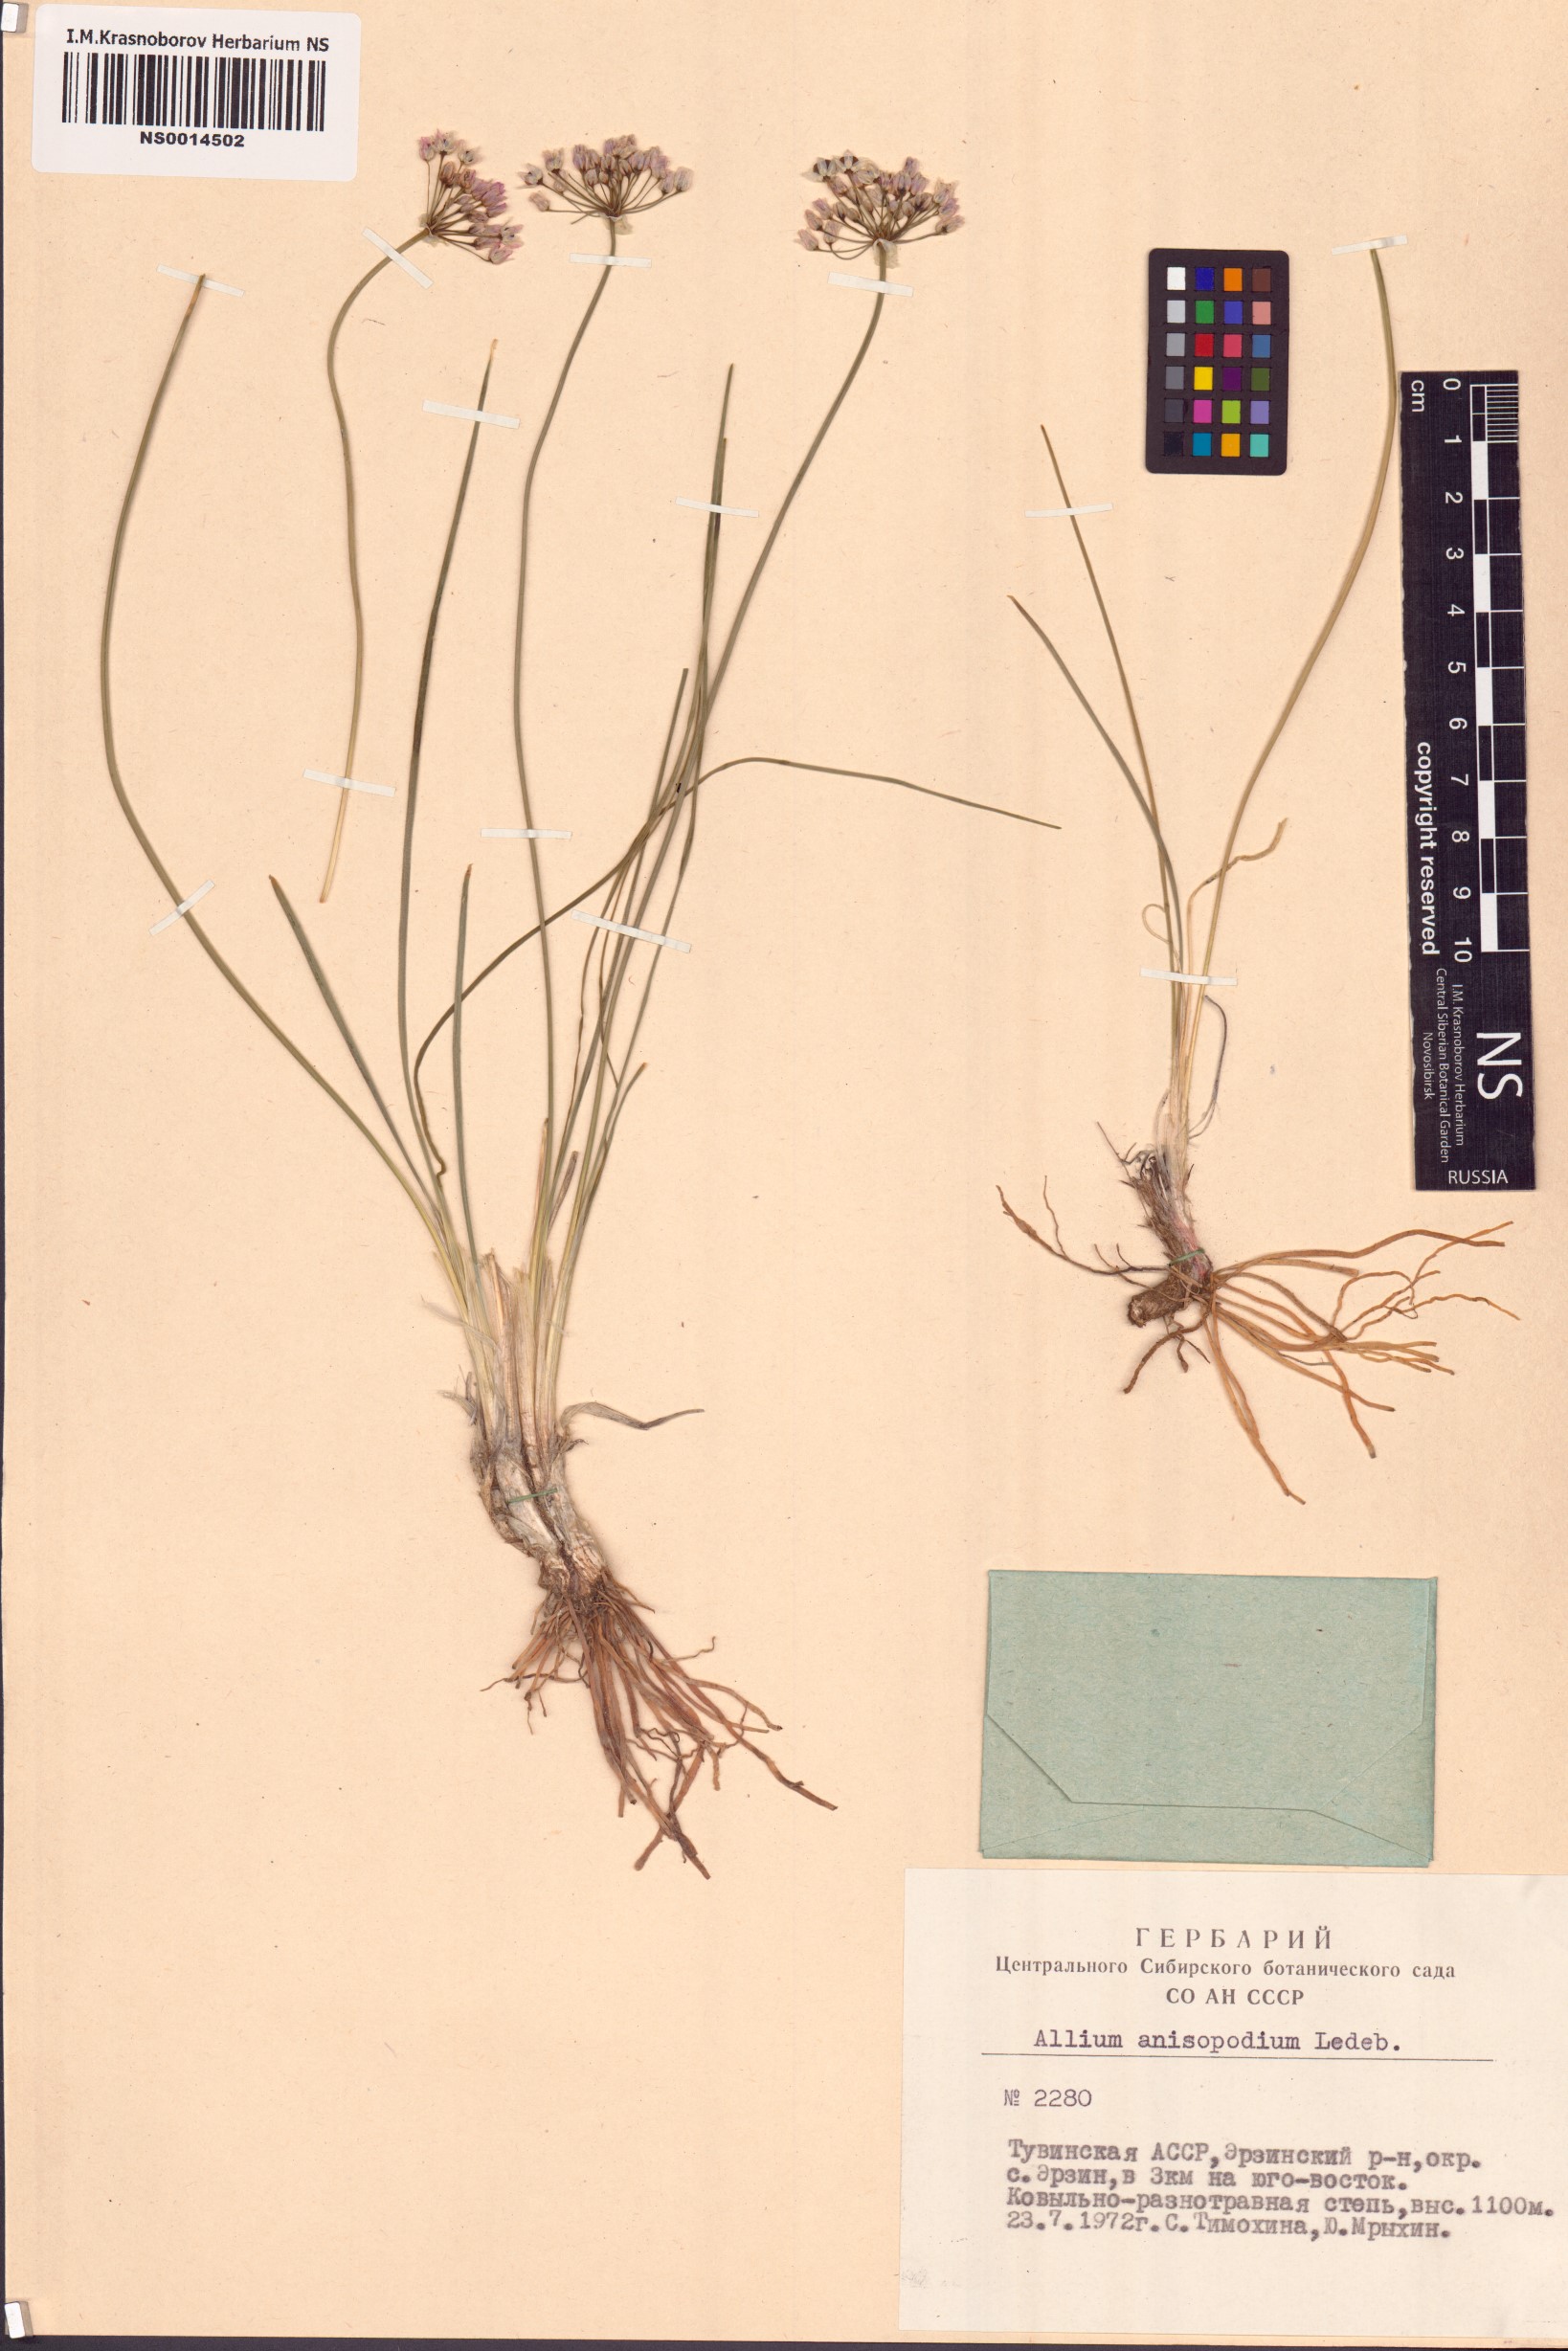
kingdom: Plantae
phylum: Tracheophyta
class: Liliopsida
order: Asparagales
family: Amaryllidaceae
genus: Allium
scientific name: Allium anisopodium
